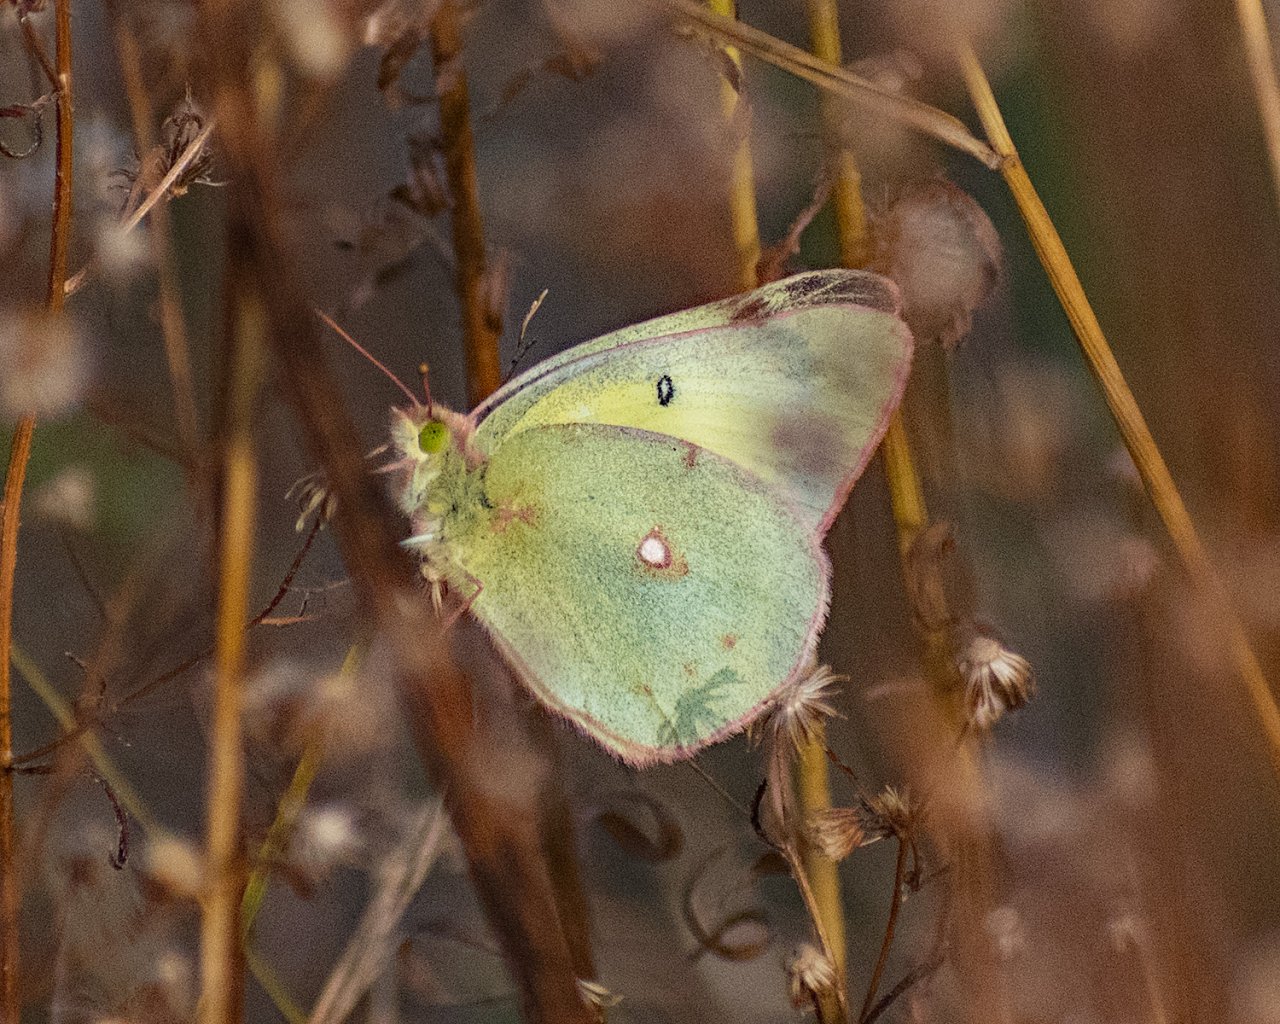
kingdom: Animalia
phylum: Arthropoda
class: Insecta
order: Lepidoptera
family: Pieridae
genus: Colias
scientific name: Colias philodice
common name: Clouded Sulphur
